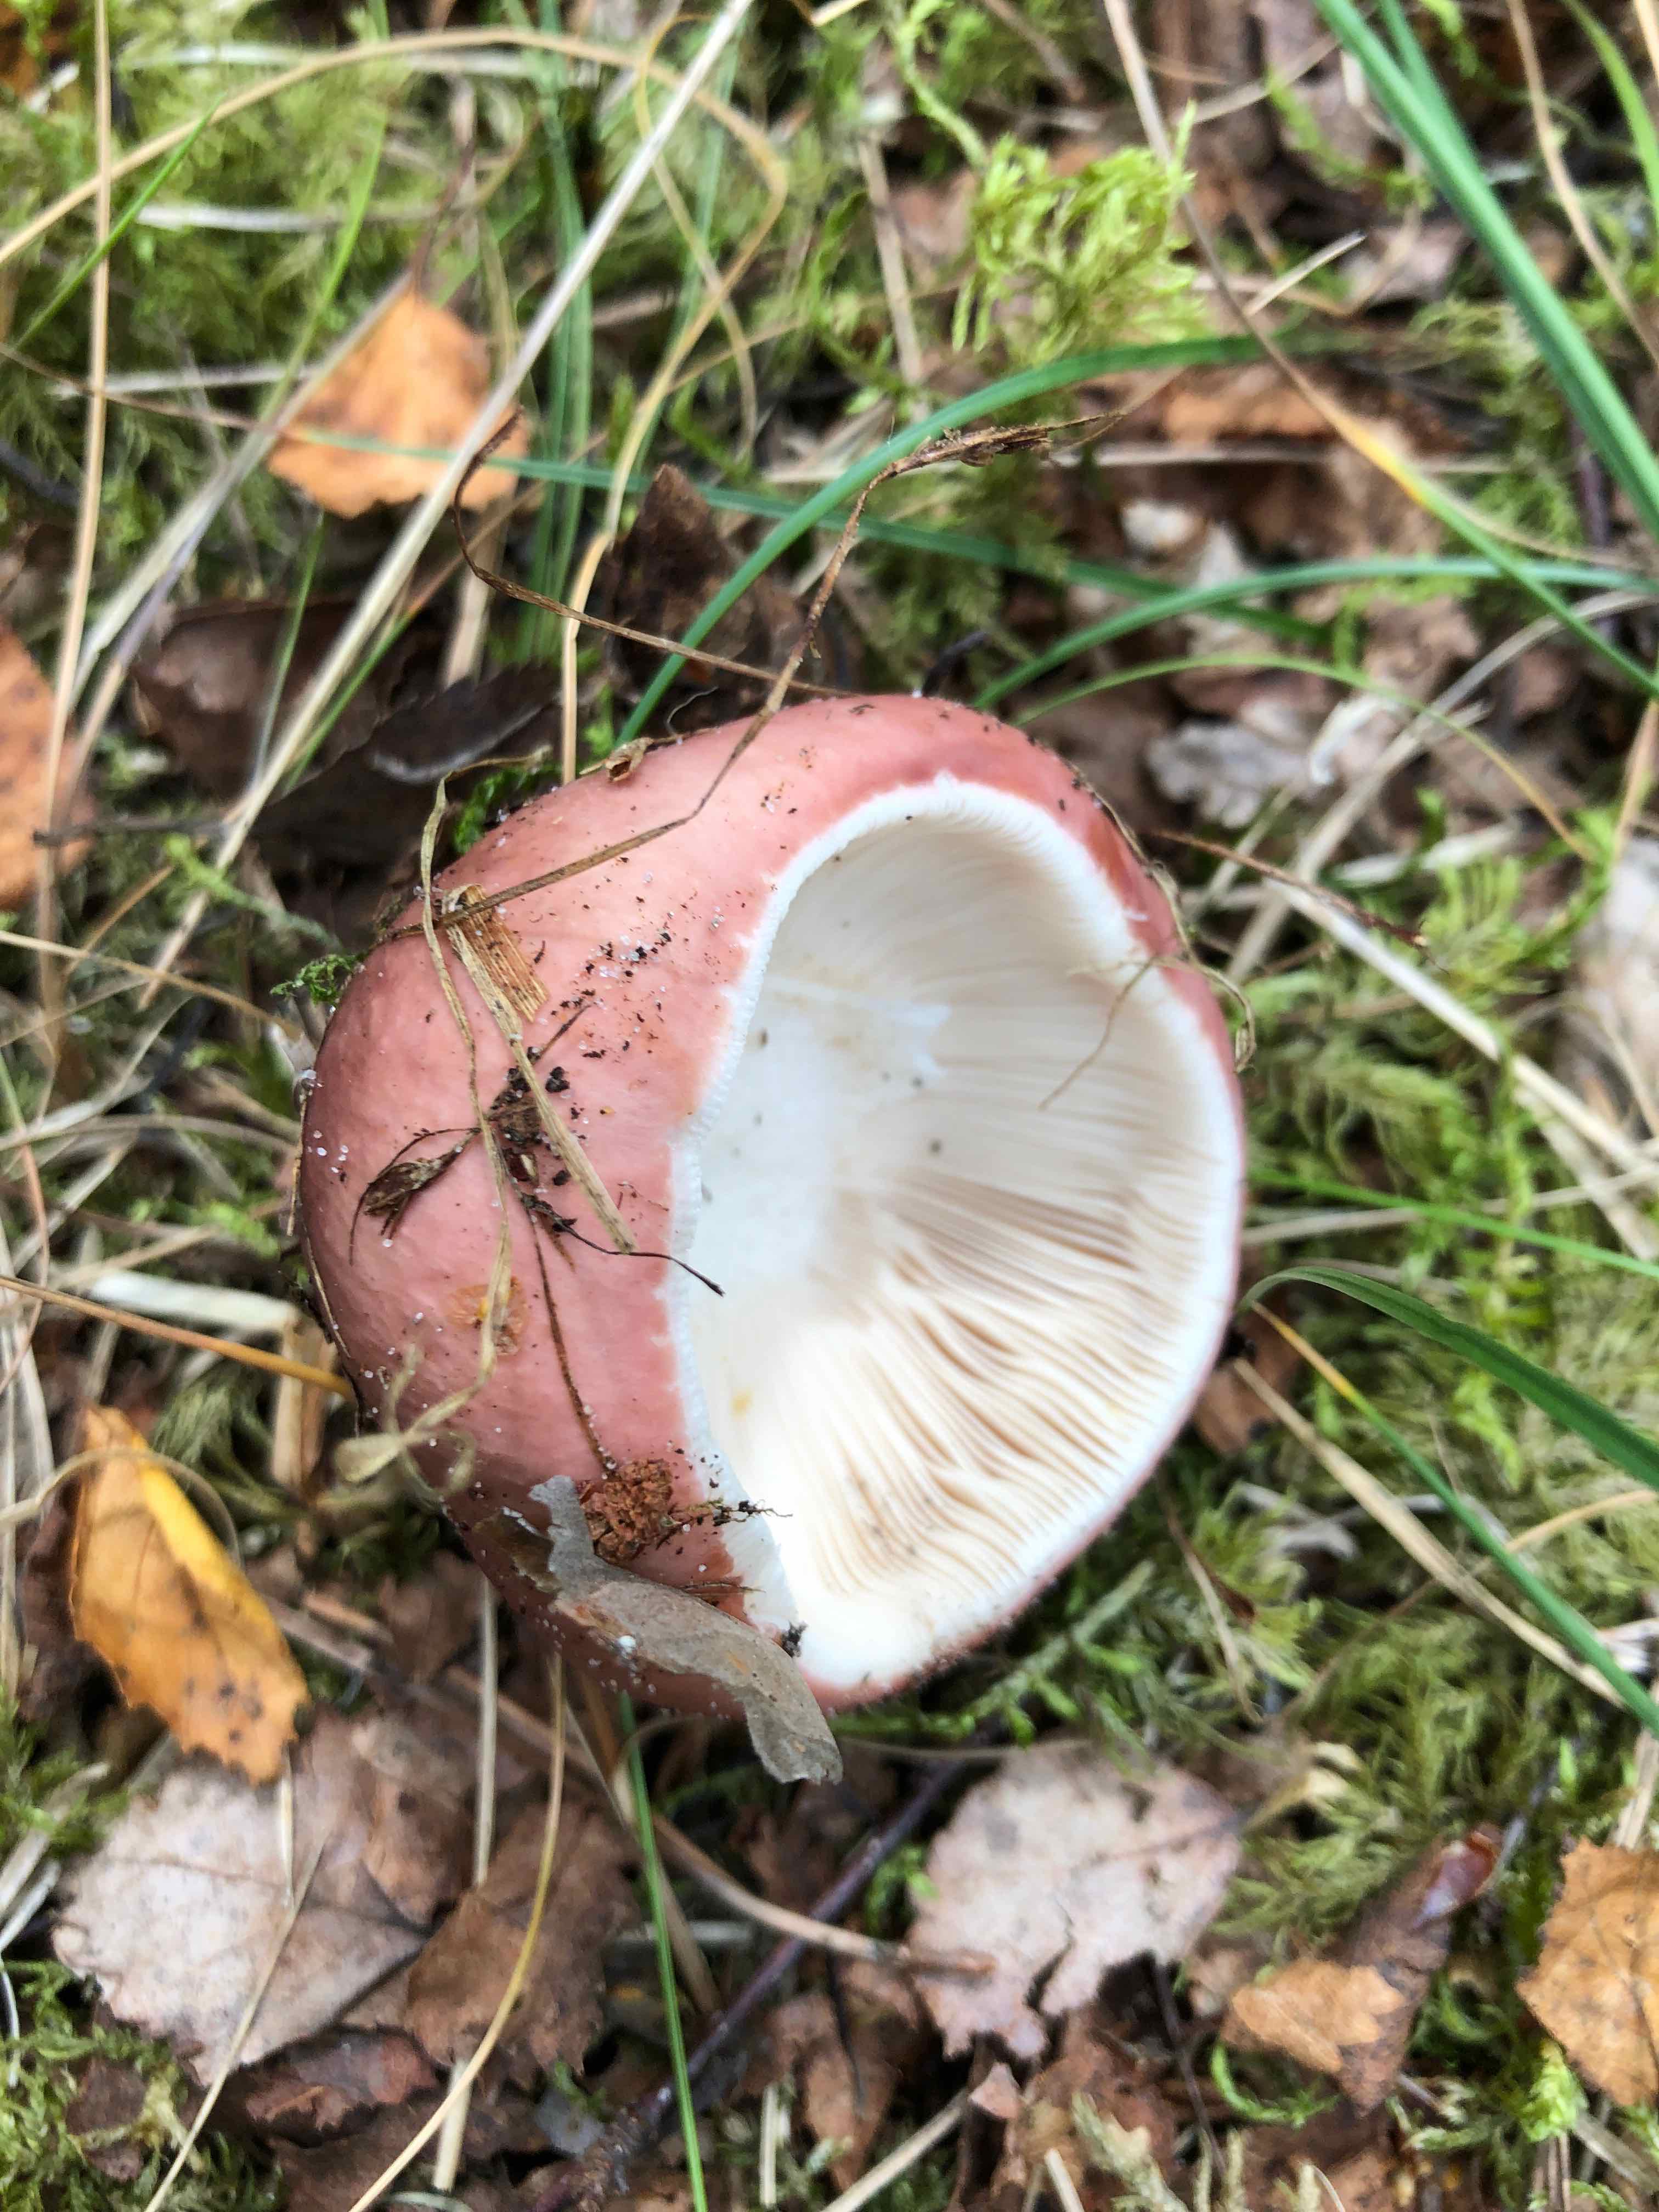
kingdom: Fungi
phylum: Basidiomycota
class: Agaricomycetes
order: Russulales
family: Russulaceae
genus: Russula
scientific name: Russula vesca
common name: spiselig skørhat
